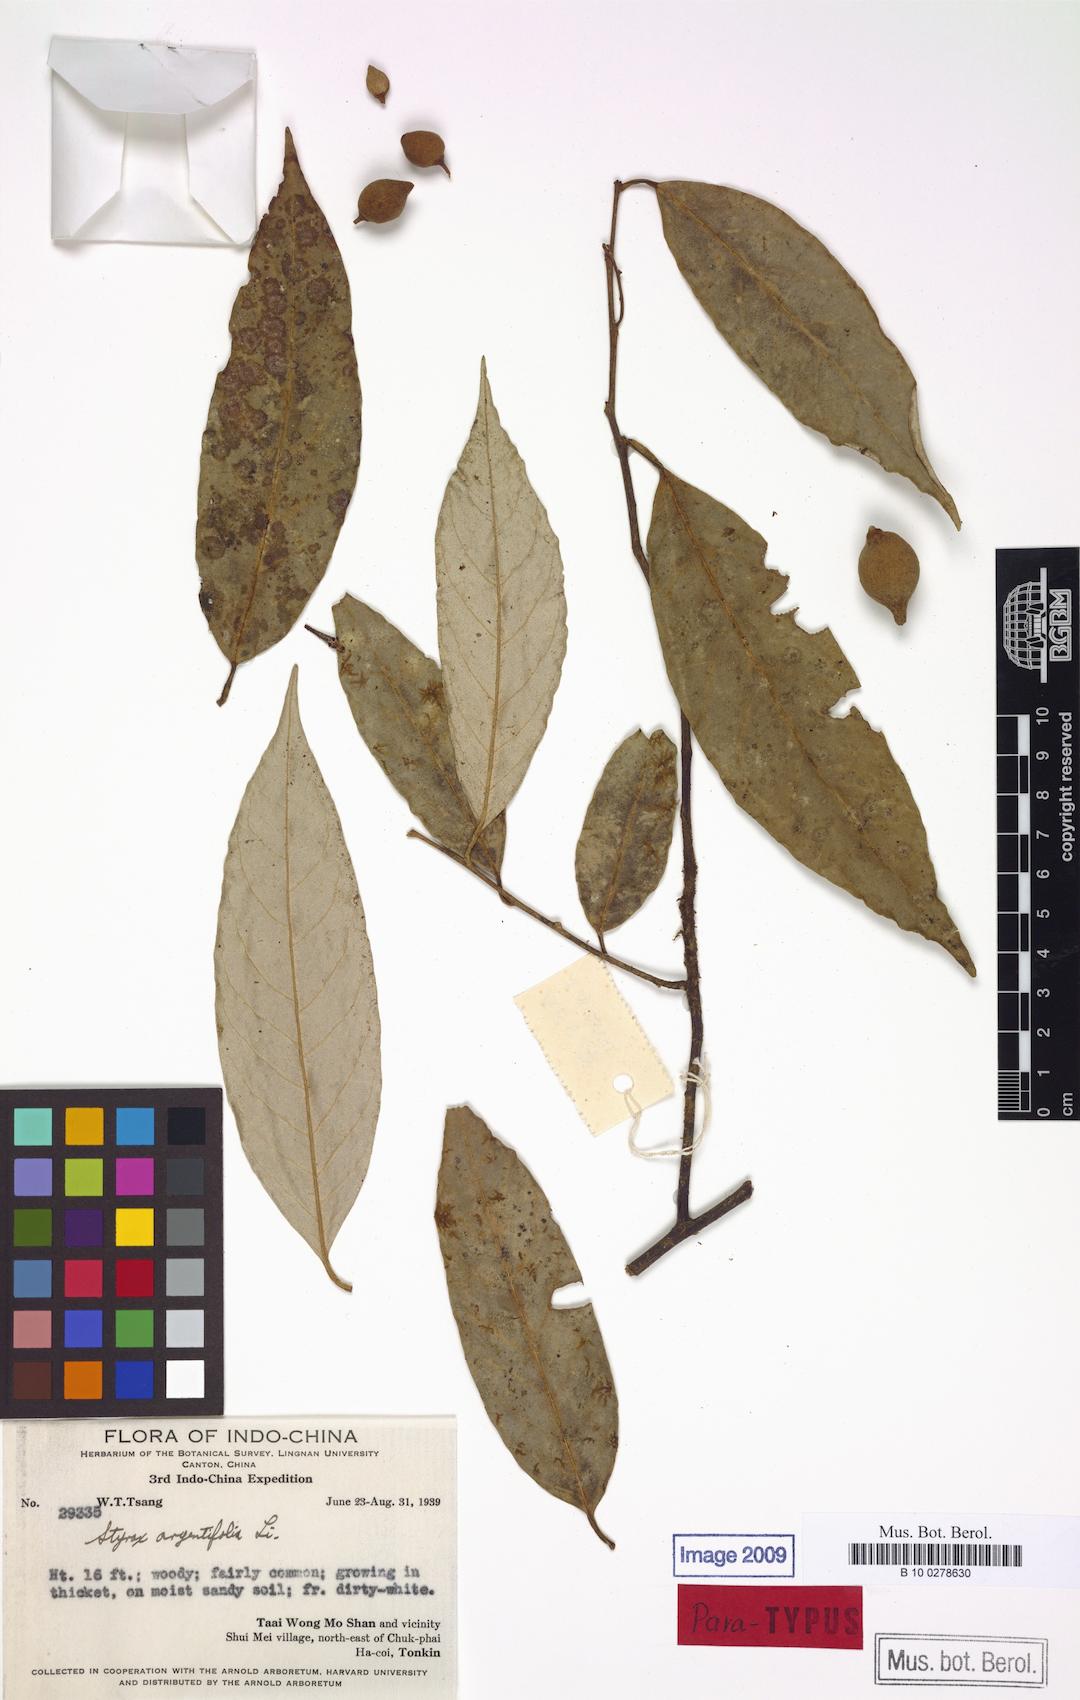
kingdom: Plantae
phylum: Tracheophyta
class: Magnoliopsida
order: Ericales
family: Styracaceae
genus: Styrax
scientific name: Styrax argentifolius
